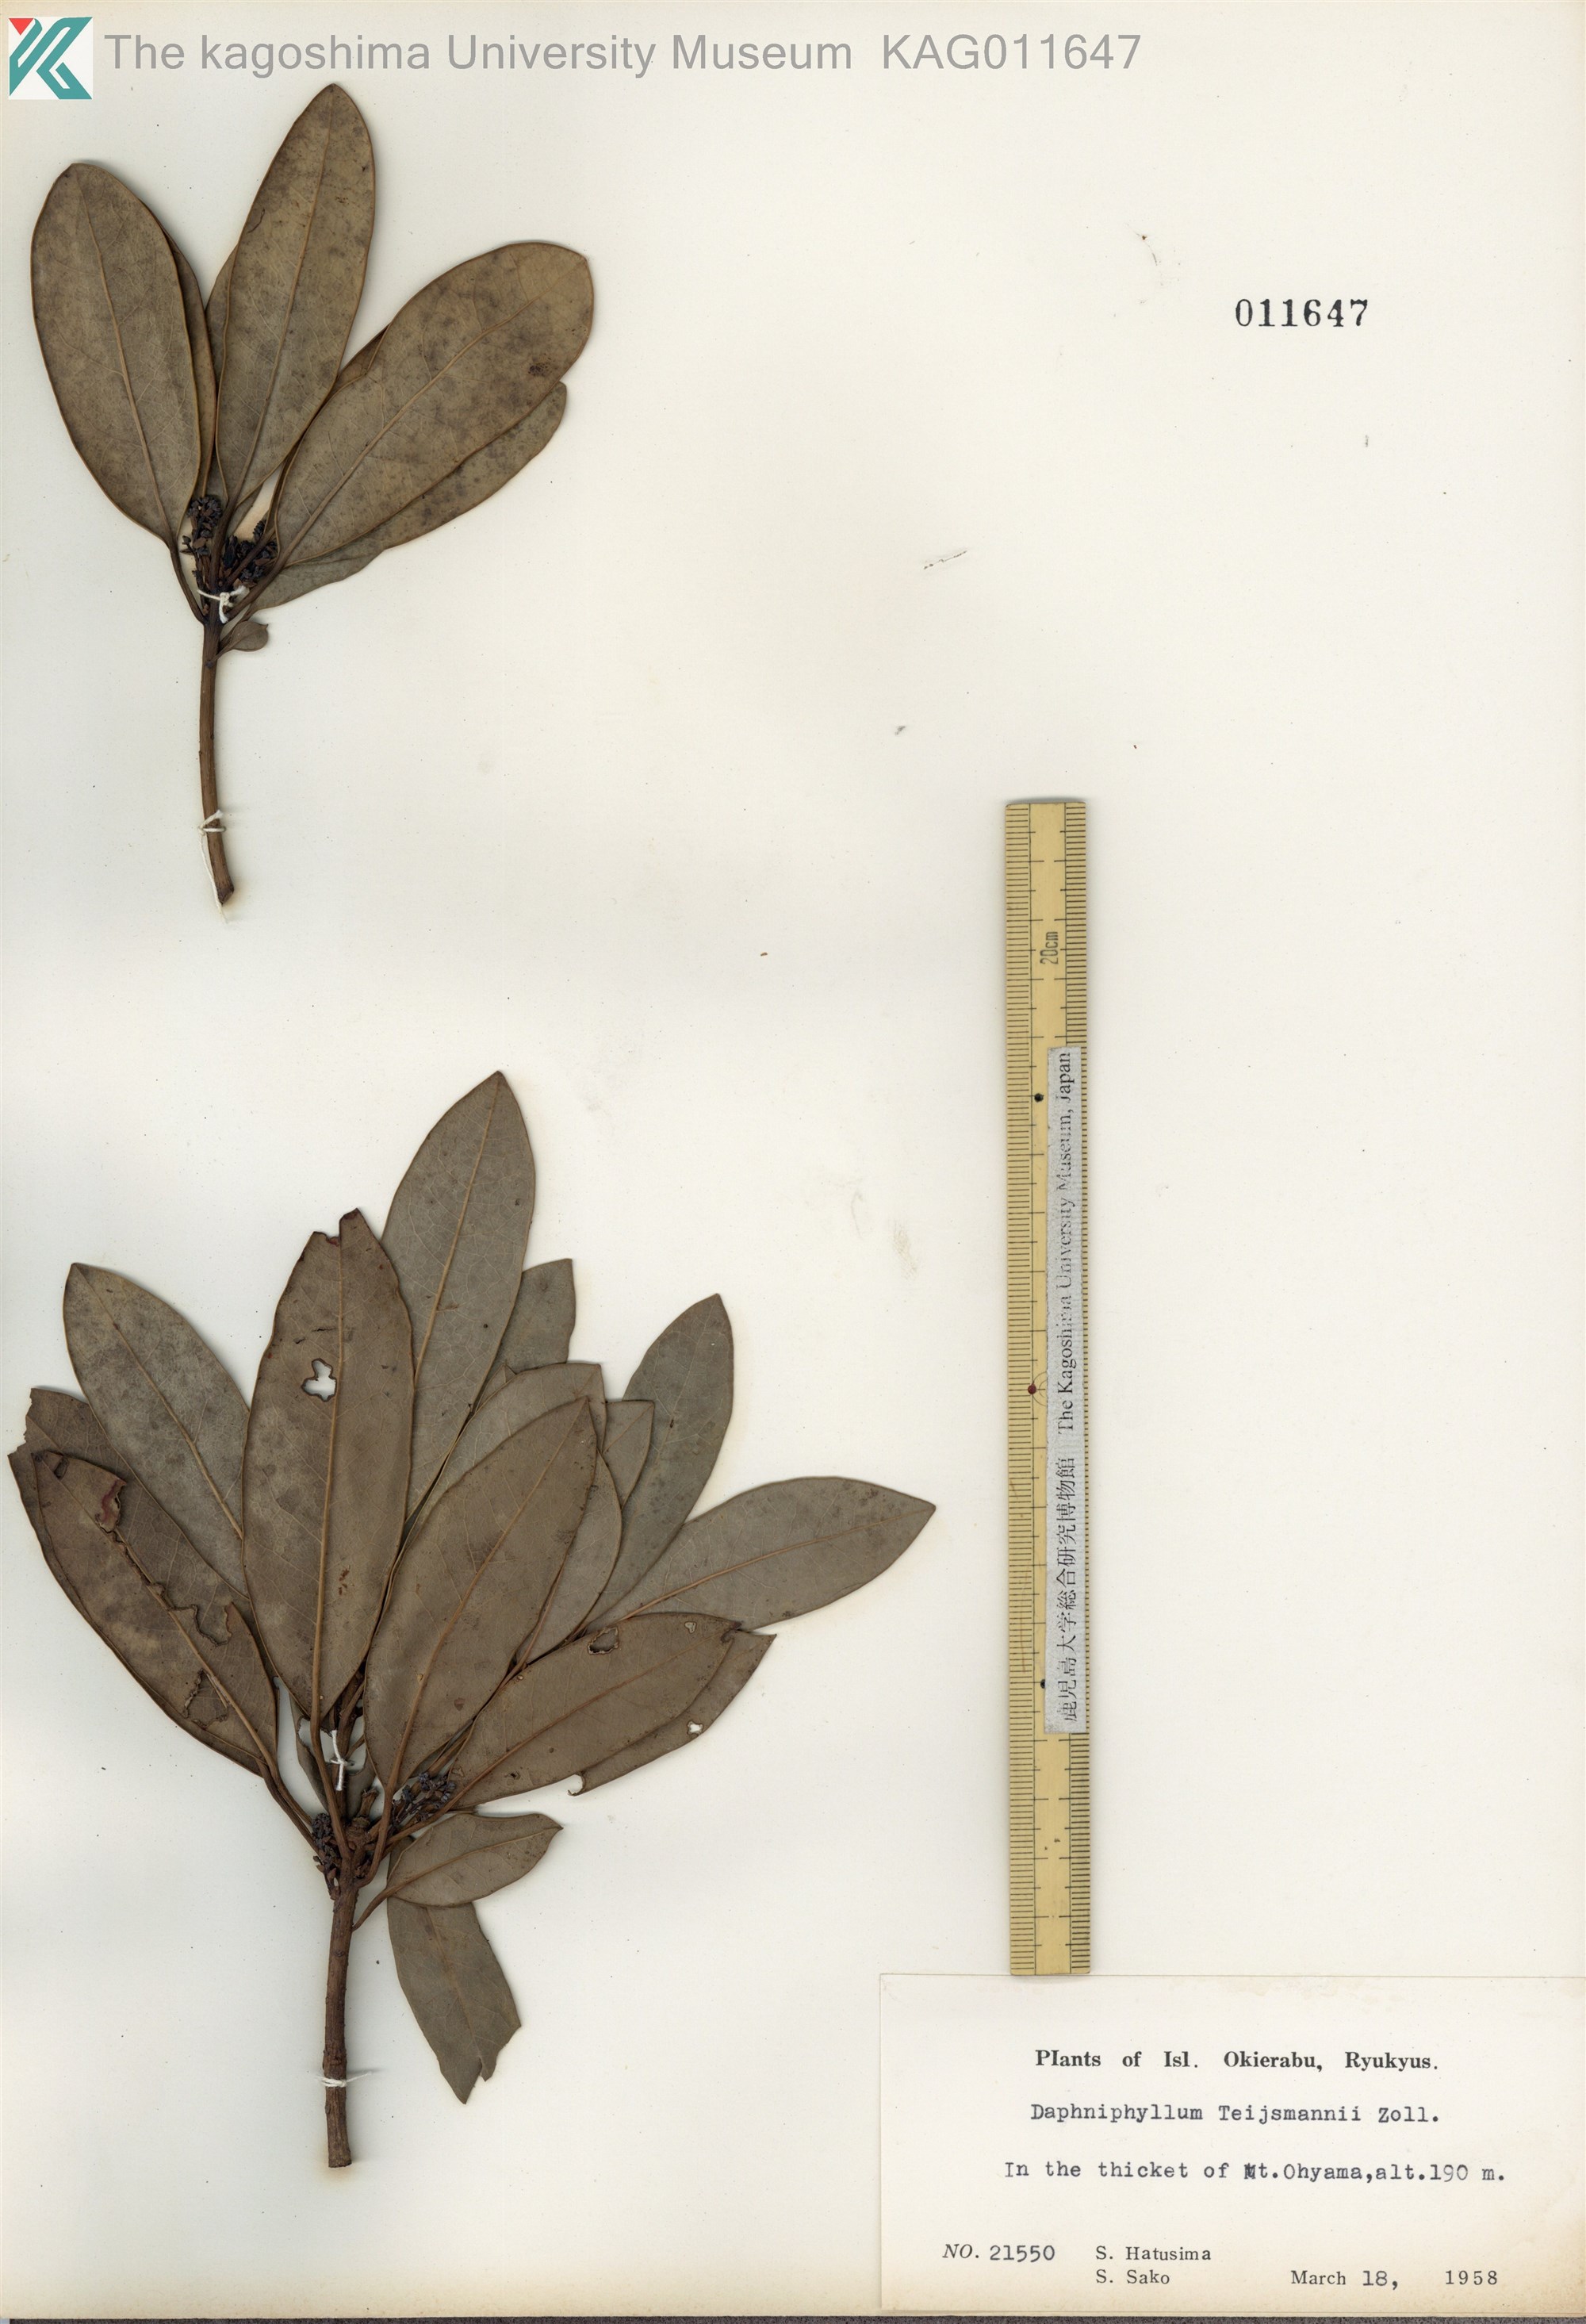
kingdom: Plantae
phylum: Tracheophyta
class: Magnoliopsida
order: Saxifragales
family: Daphniphyllaceae
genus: Daphniphyllum
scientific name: Daphniphyllum teijsmannii
